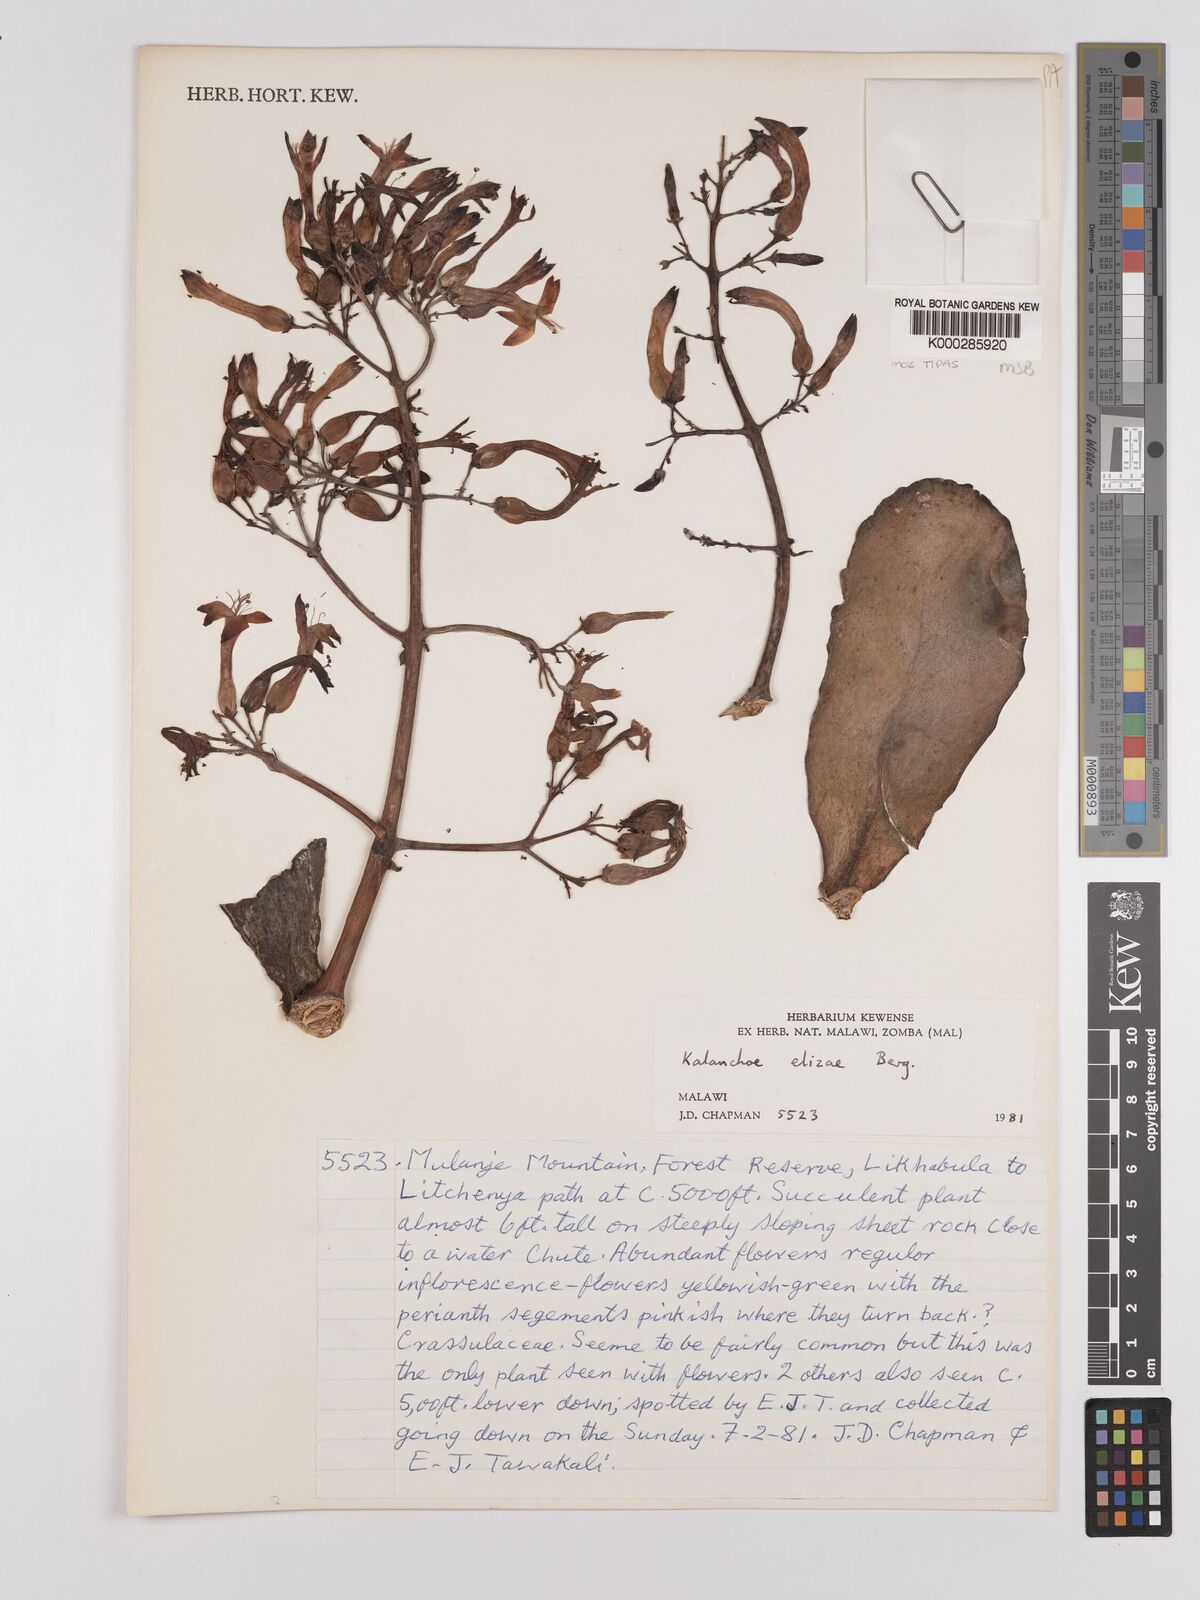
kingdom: Plantae
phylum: Tracheophyta
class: Magnoliopsida
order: Saxifragales
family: Crassulaceae
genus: Kalanchoe
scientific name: Kalanchoe elizae
